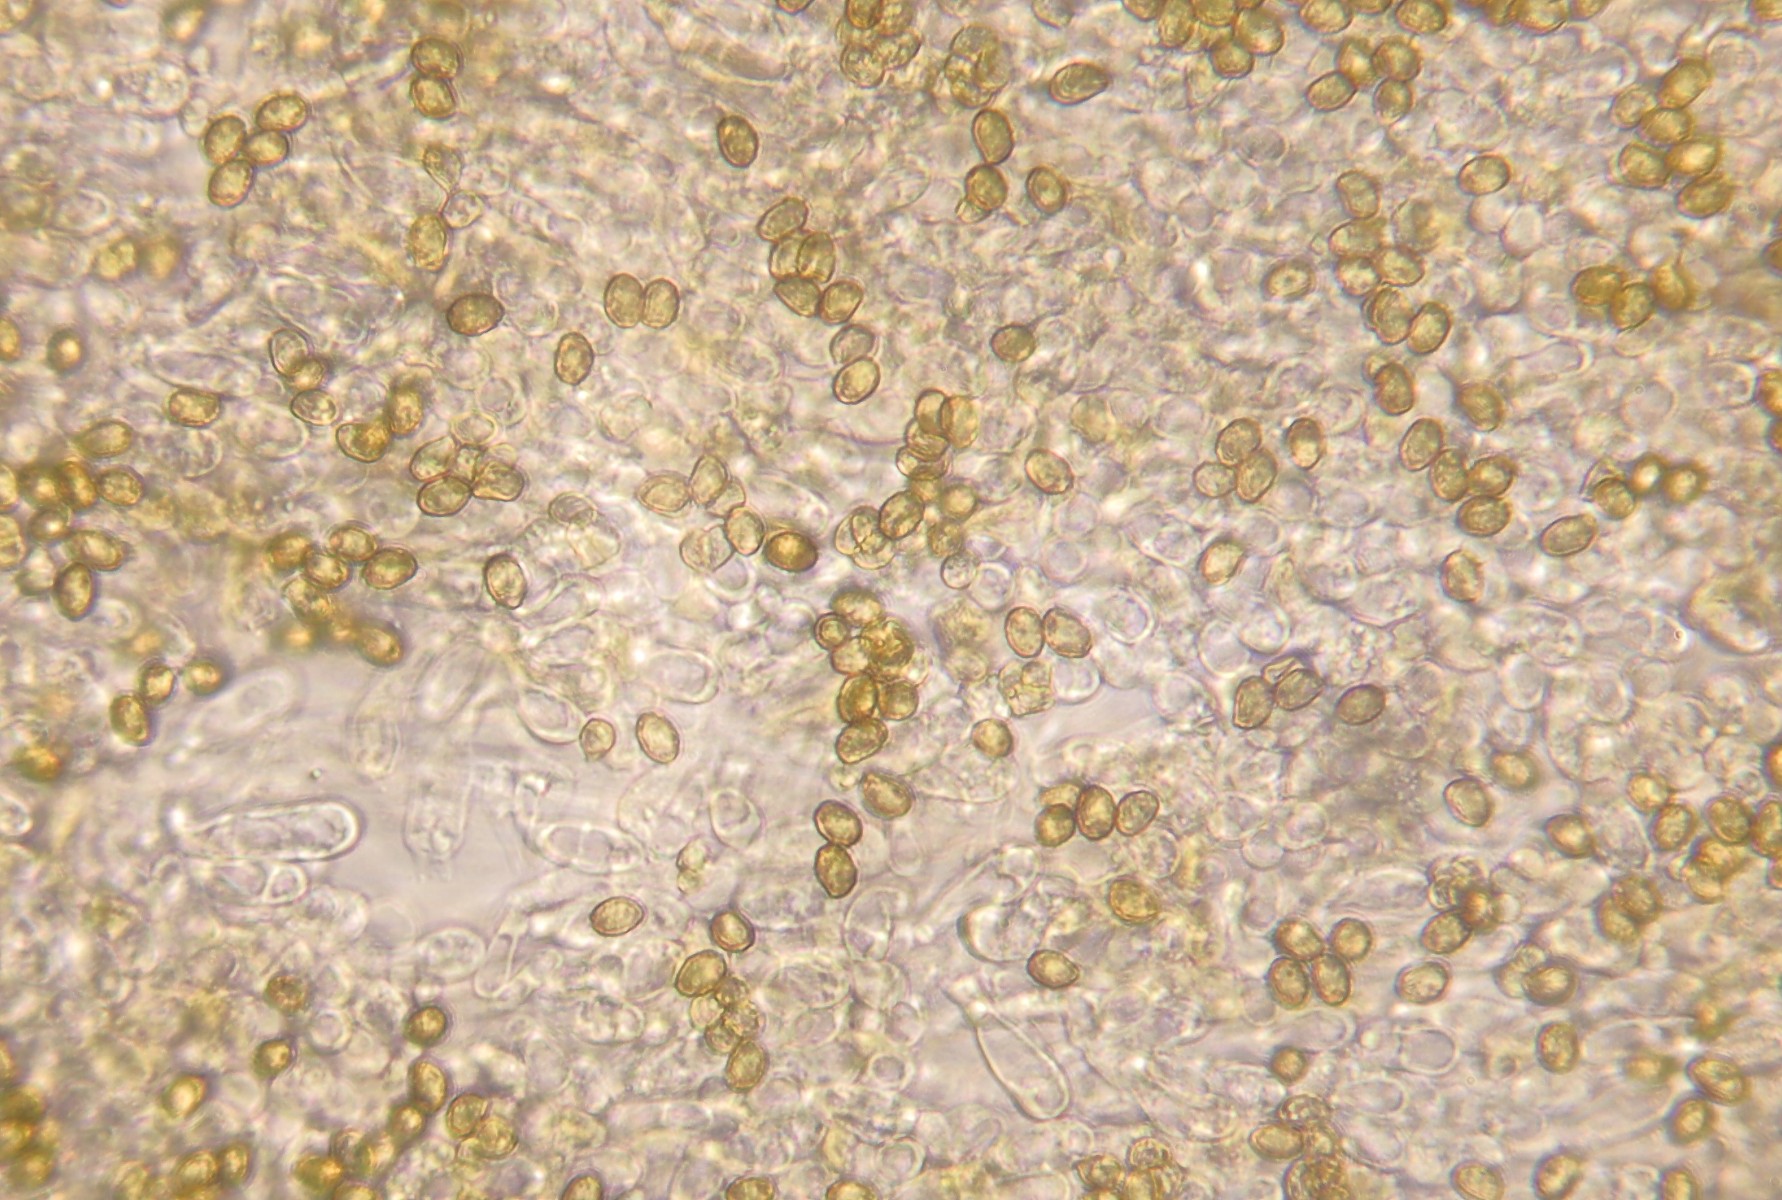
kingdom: Fungi
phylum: Basidiomycota
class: Agaricomycetes
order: Agaricales
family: Cortinariaceae
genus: Cortinarius
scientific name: Cortinarius comptulus
